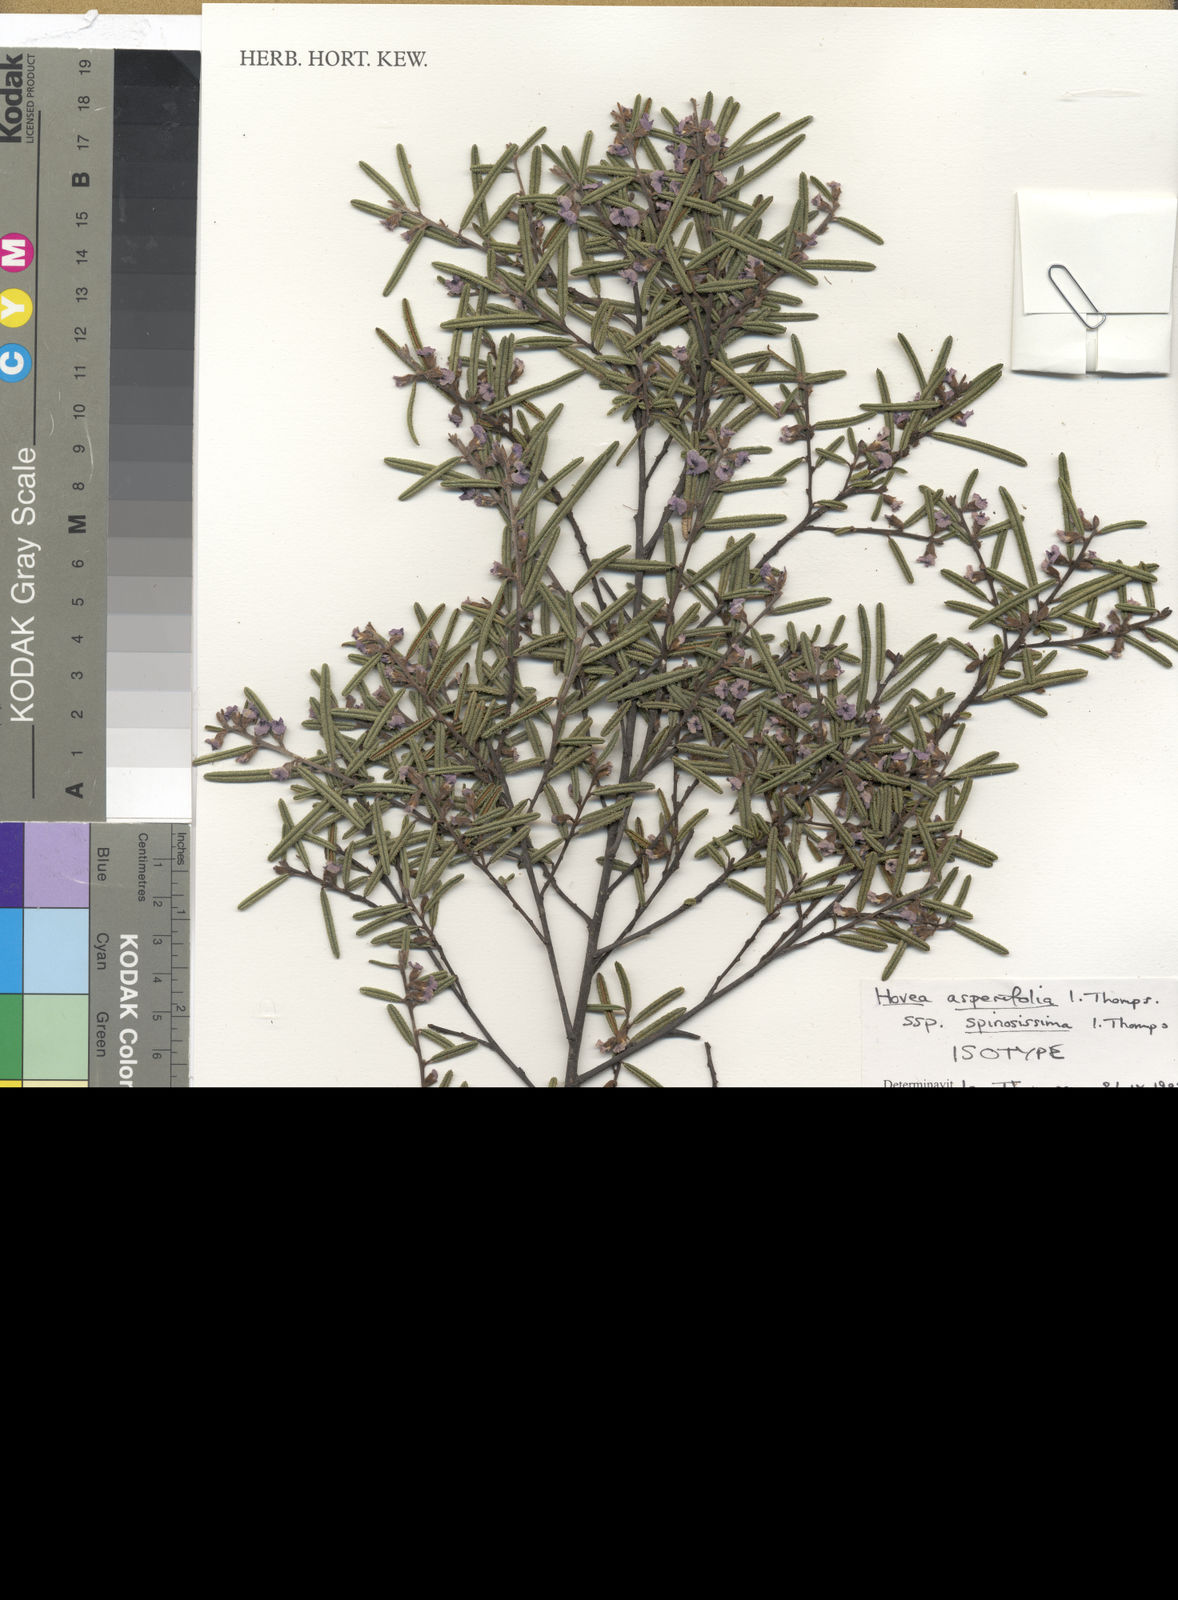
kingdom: Plantae
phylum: Tracheophyta
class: Magnoliopsida
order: Fabales
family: Fabaceae
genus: Hovea
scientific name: Hovea asperifolia
